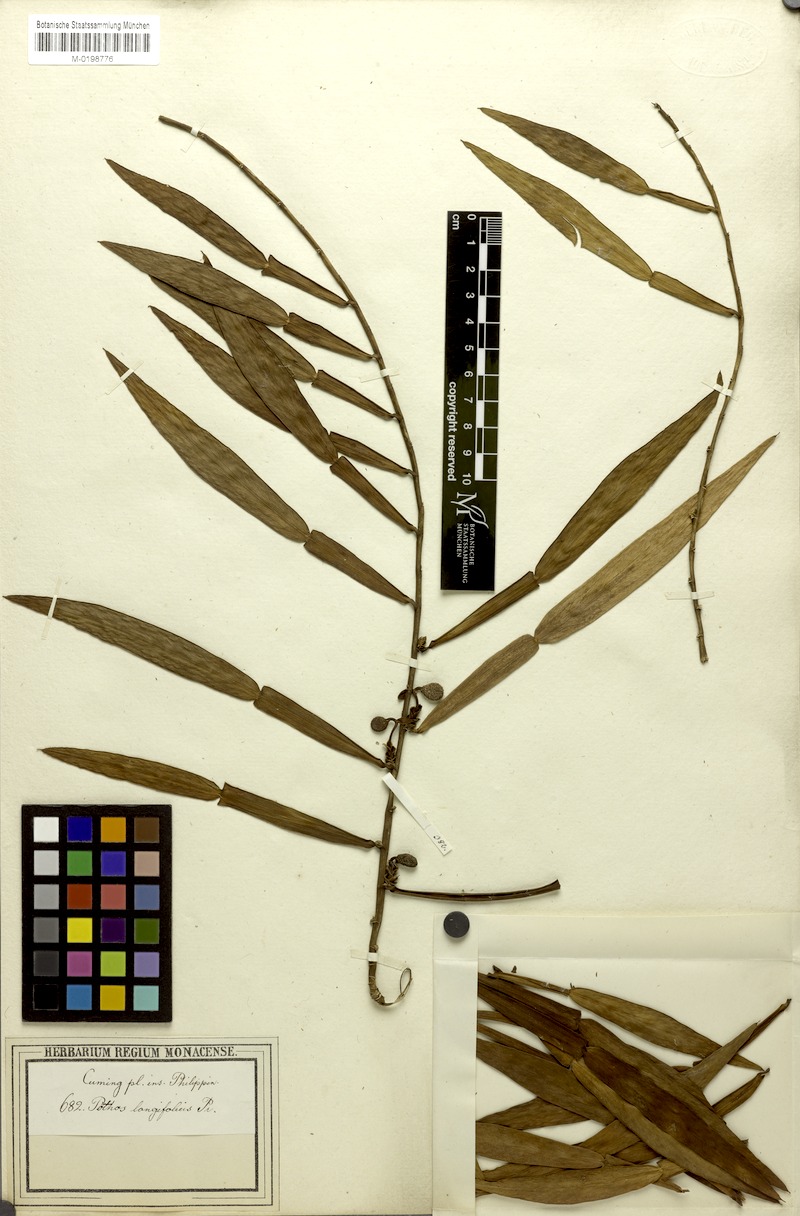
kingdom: Plantae
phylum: Tracheophyta
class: Liliopsida
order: Alismatales
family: Araceae
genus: Pothos
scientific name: Pothos scandens
